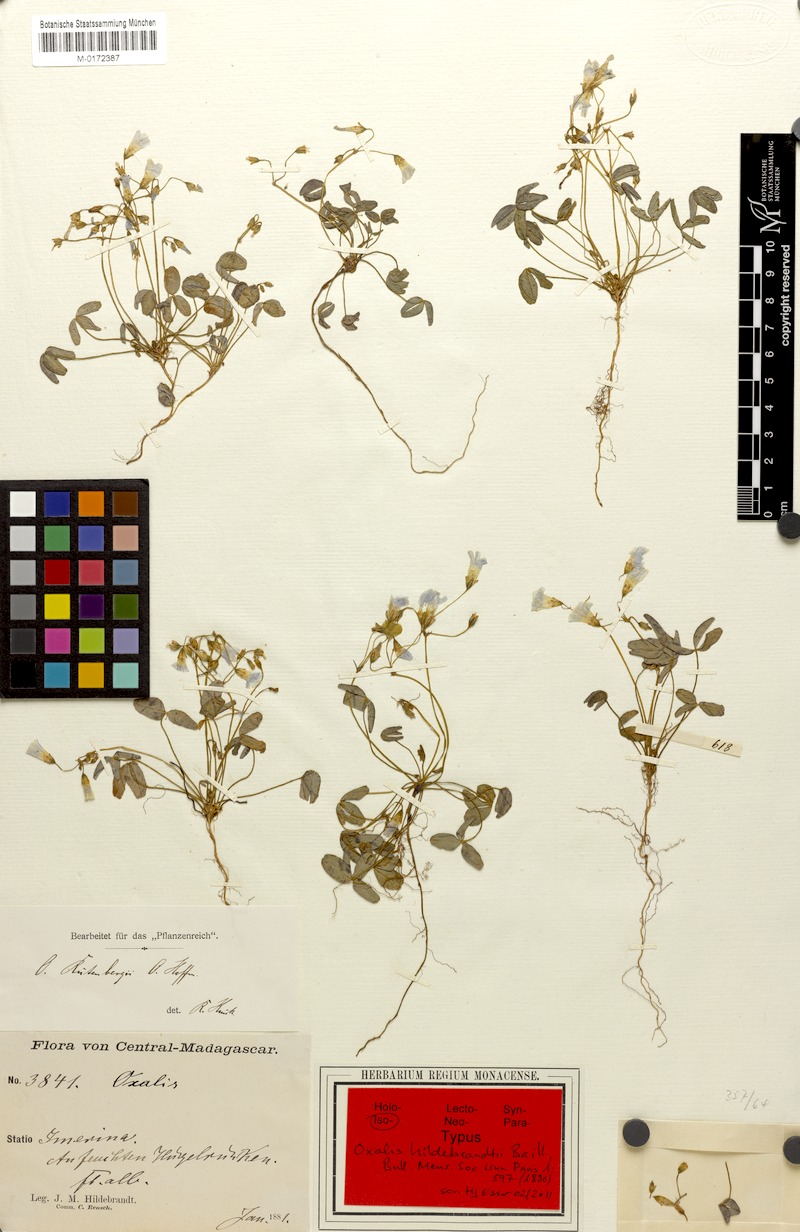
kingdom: Plantae
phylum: Tracheophyta
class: Magnoliopsida
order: Oxalidales
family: Oxalidaceae
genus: Oxalis
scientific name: Oxalis rutenbergii
